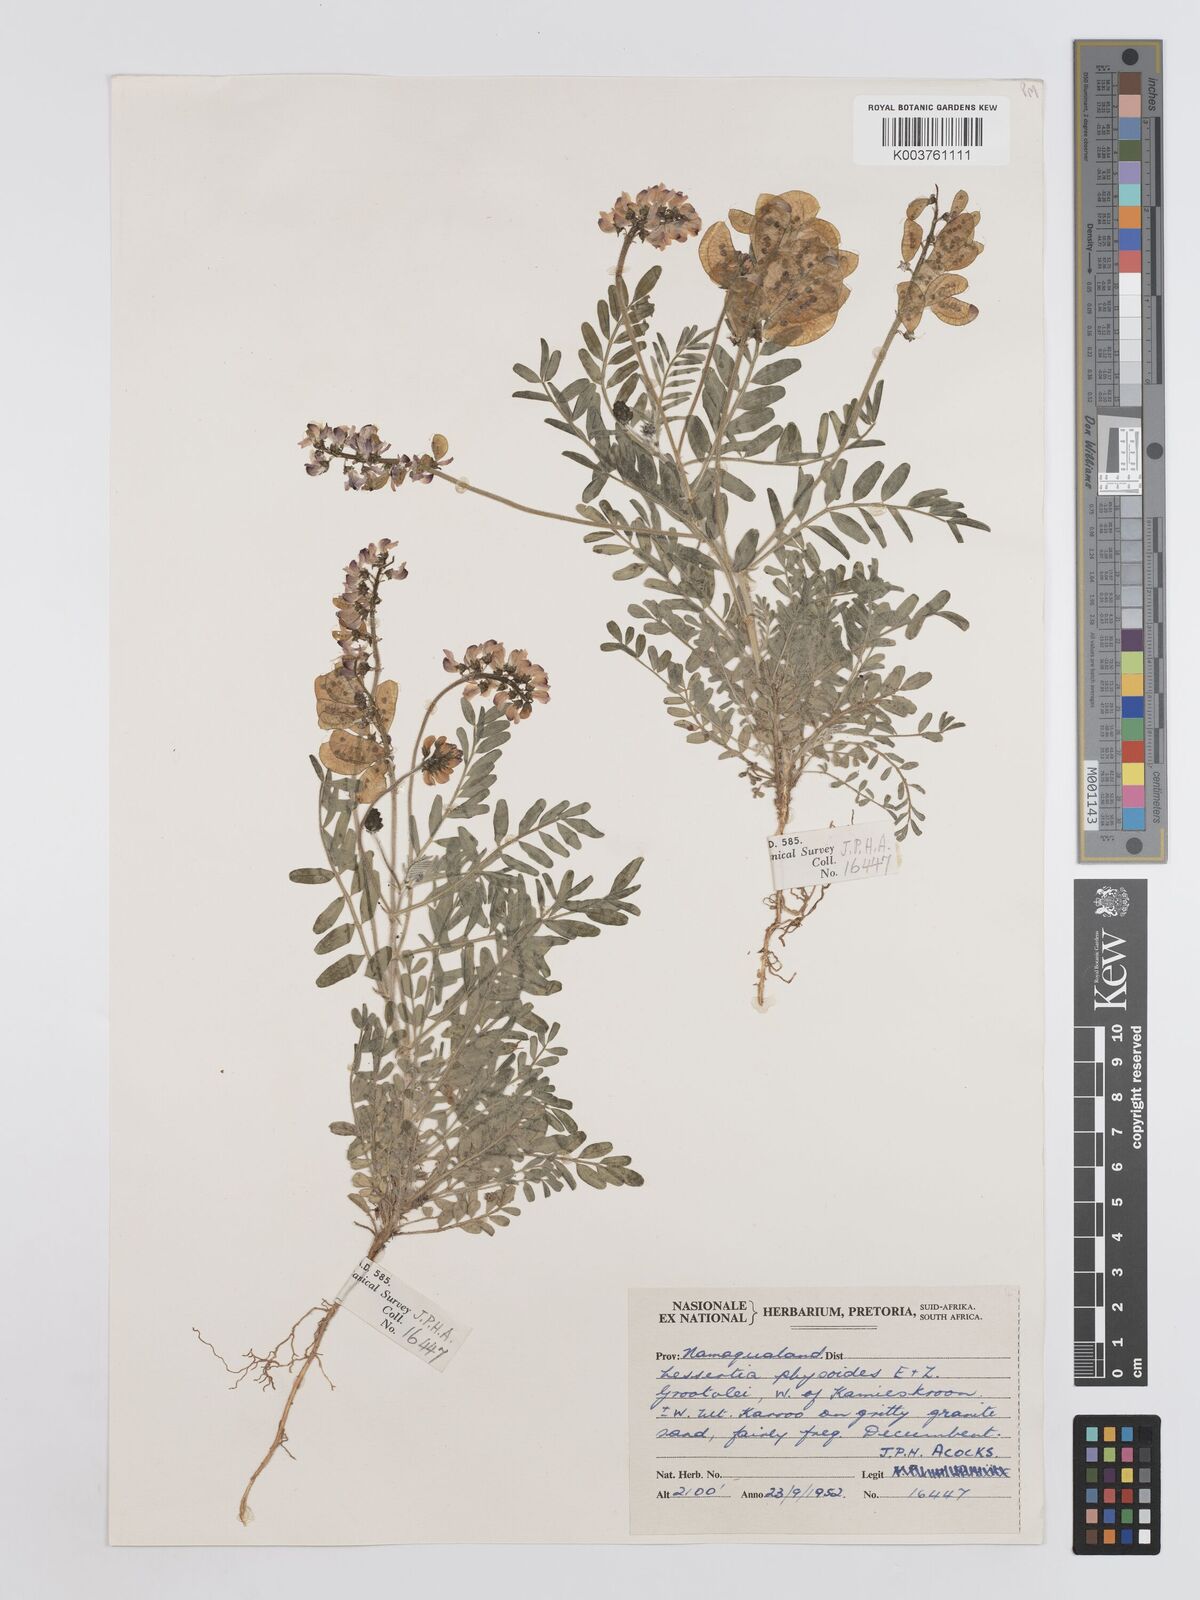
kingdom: Plantae
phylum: Tracheophyta
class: Magnoliopsida
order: Fabales
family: Fabaceae
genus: Lessertia
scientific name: Lessertia physodes
